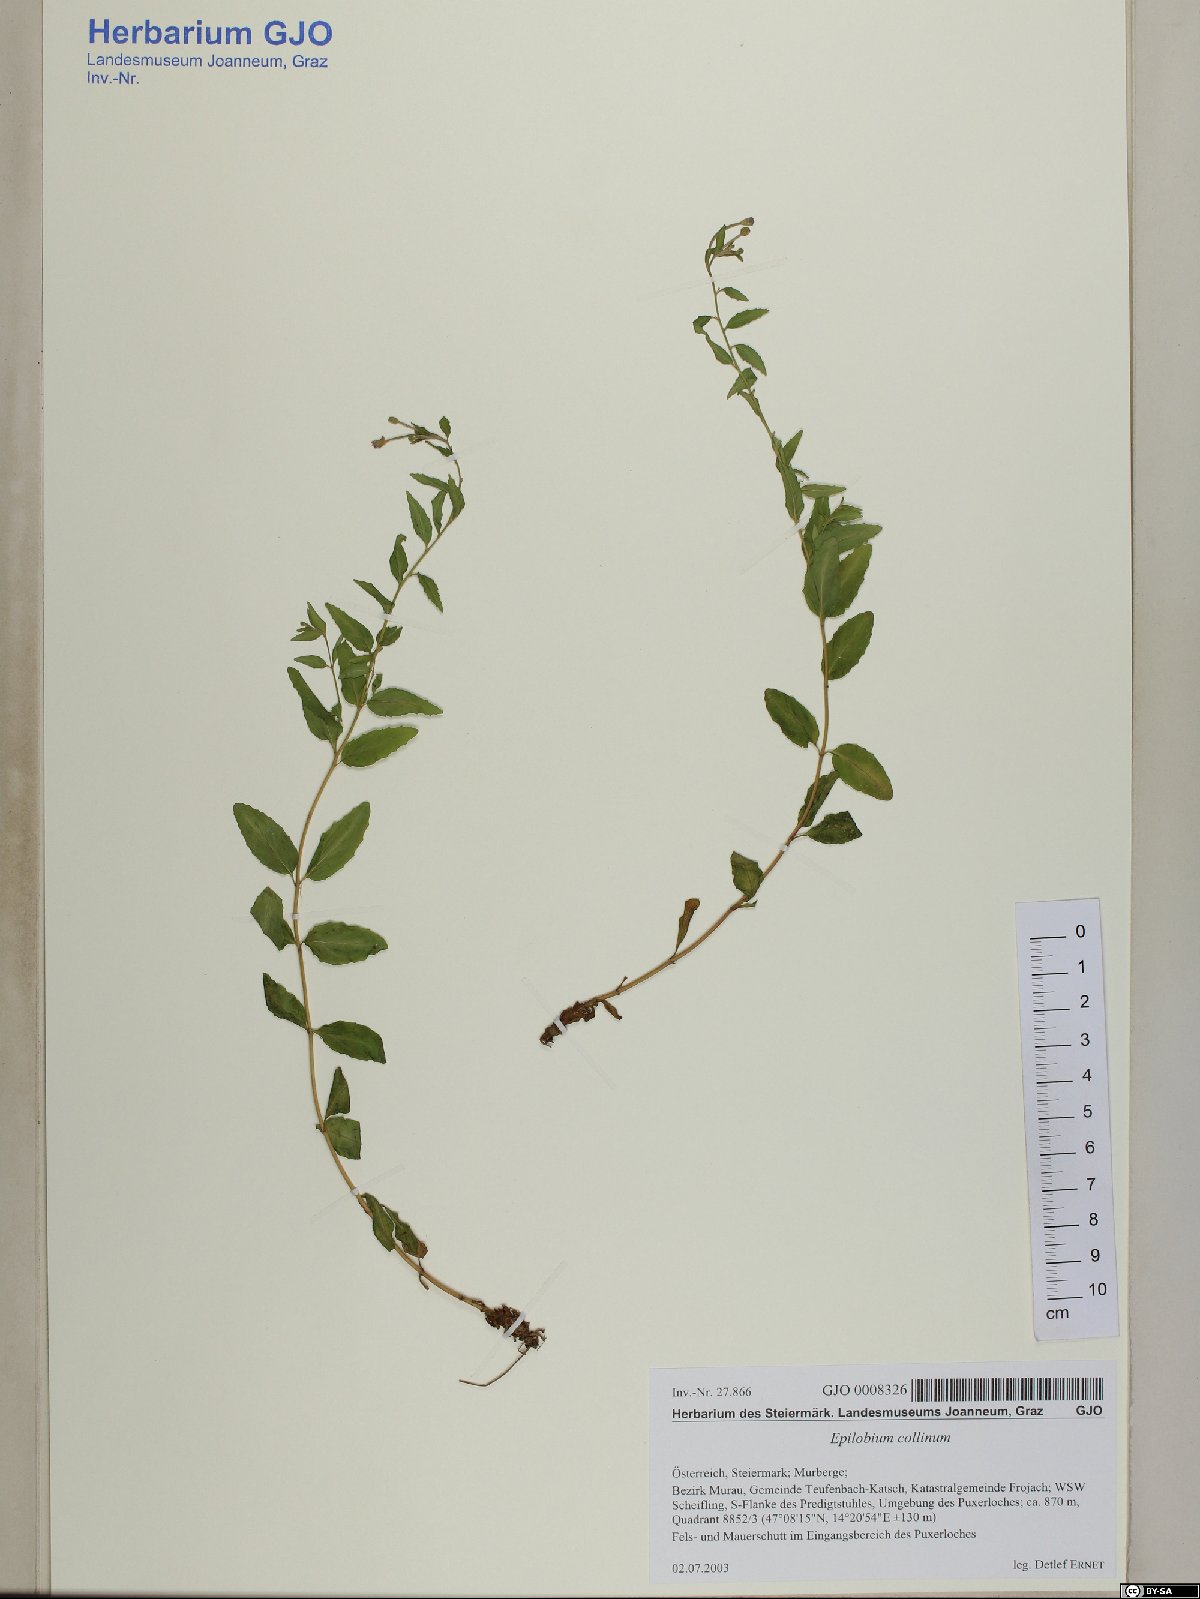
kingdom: Plantae
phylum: Tracheophyta
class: Magnoliopsida
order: Myrtales
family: Onagraceae
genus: Epilobium
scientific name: Epilobium collinum
